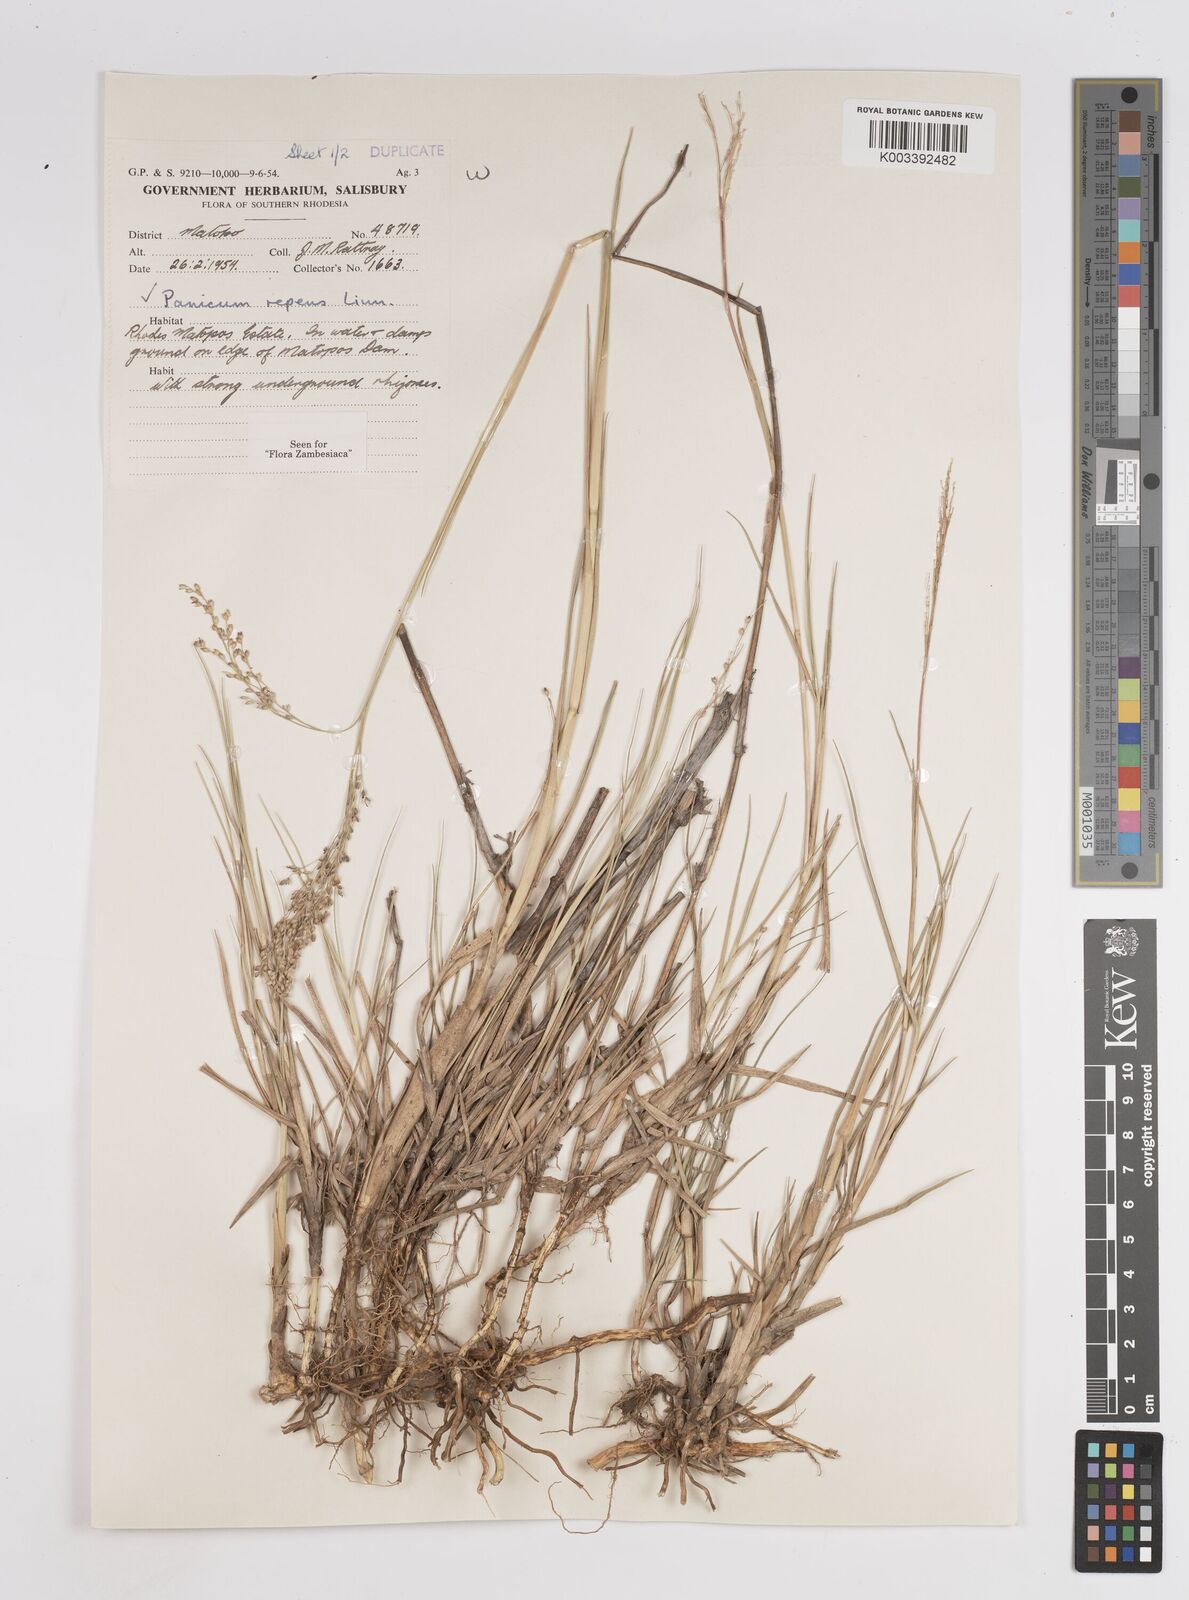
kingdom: Plantae
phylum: Tracheophyta
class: Liliopsida
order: Poales
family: Poaceae
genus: Panicum
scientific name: Panicum repens
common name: Torpedo grass
